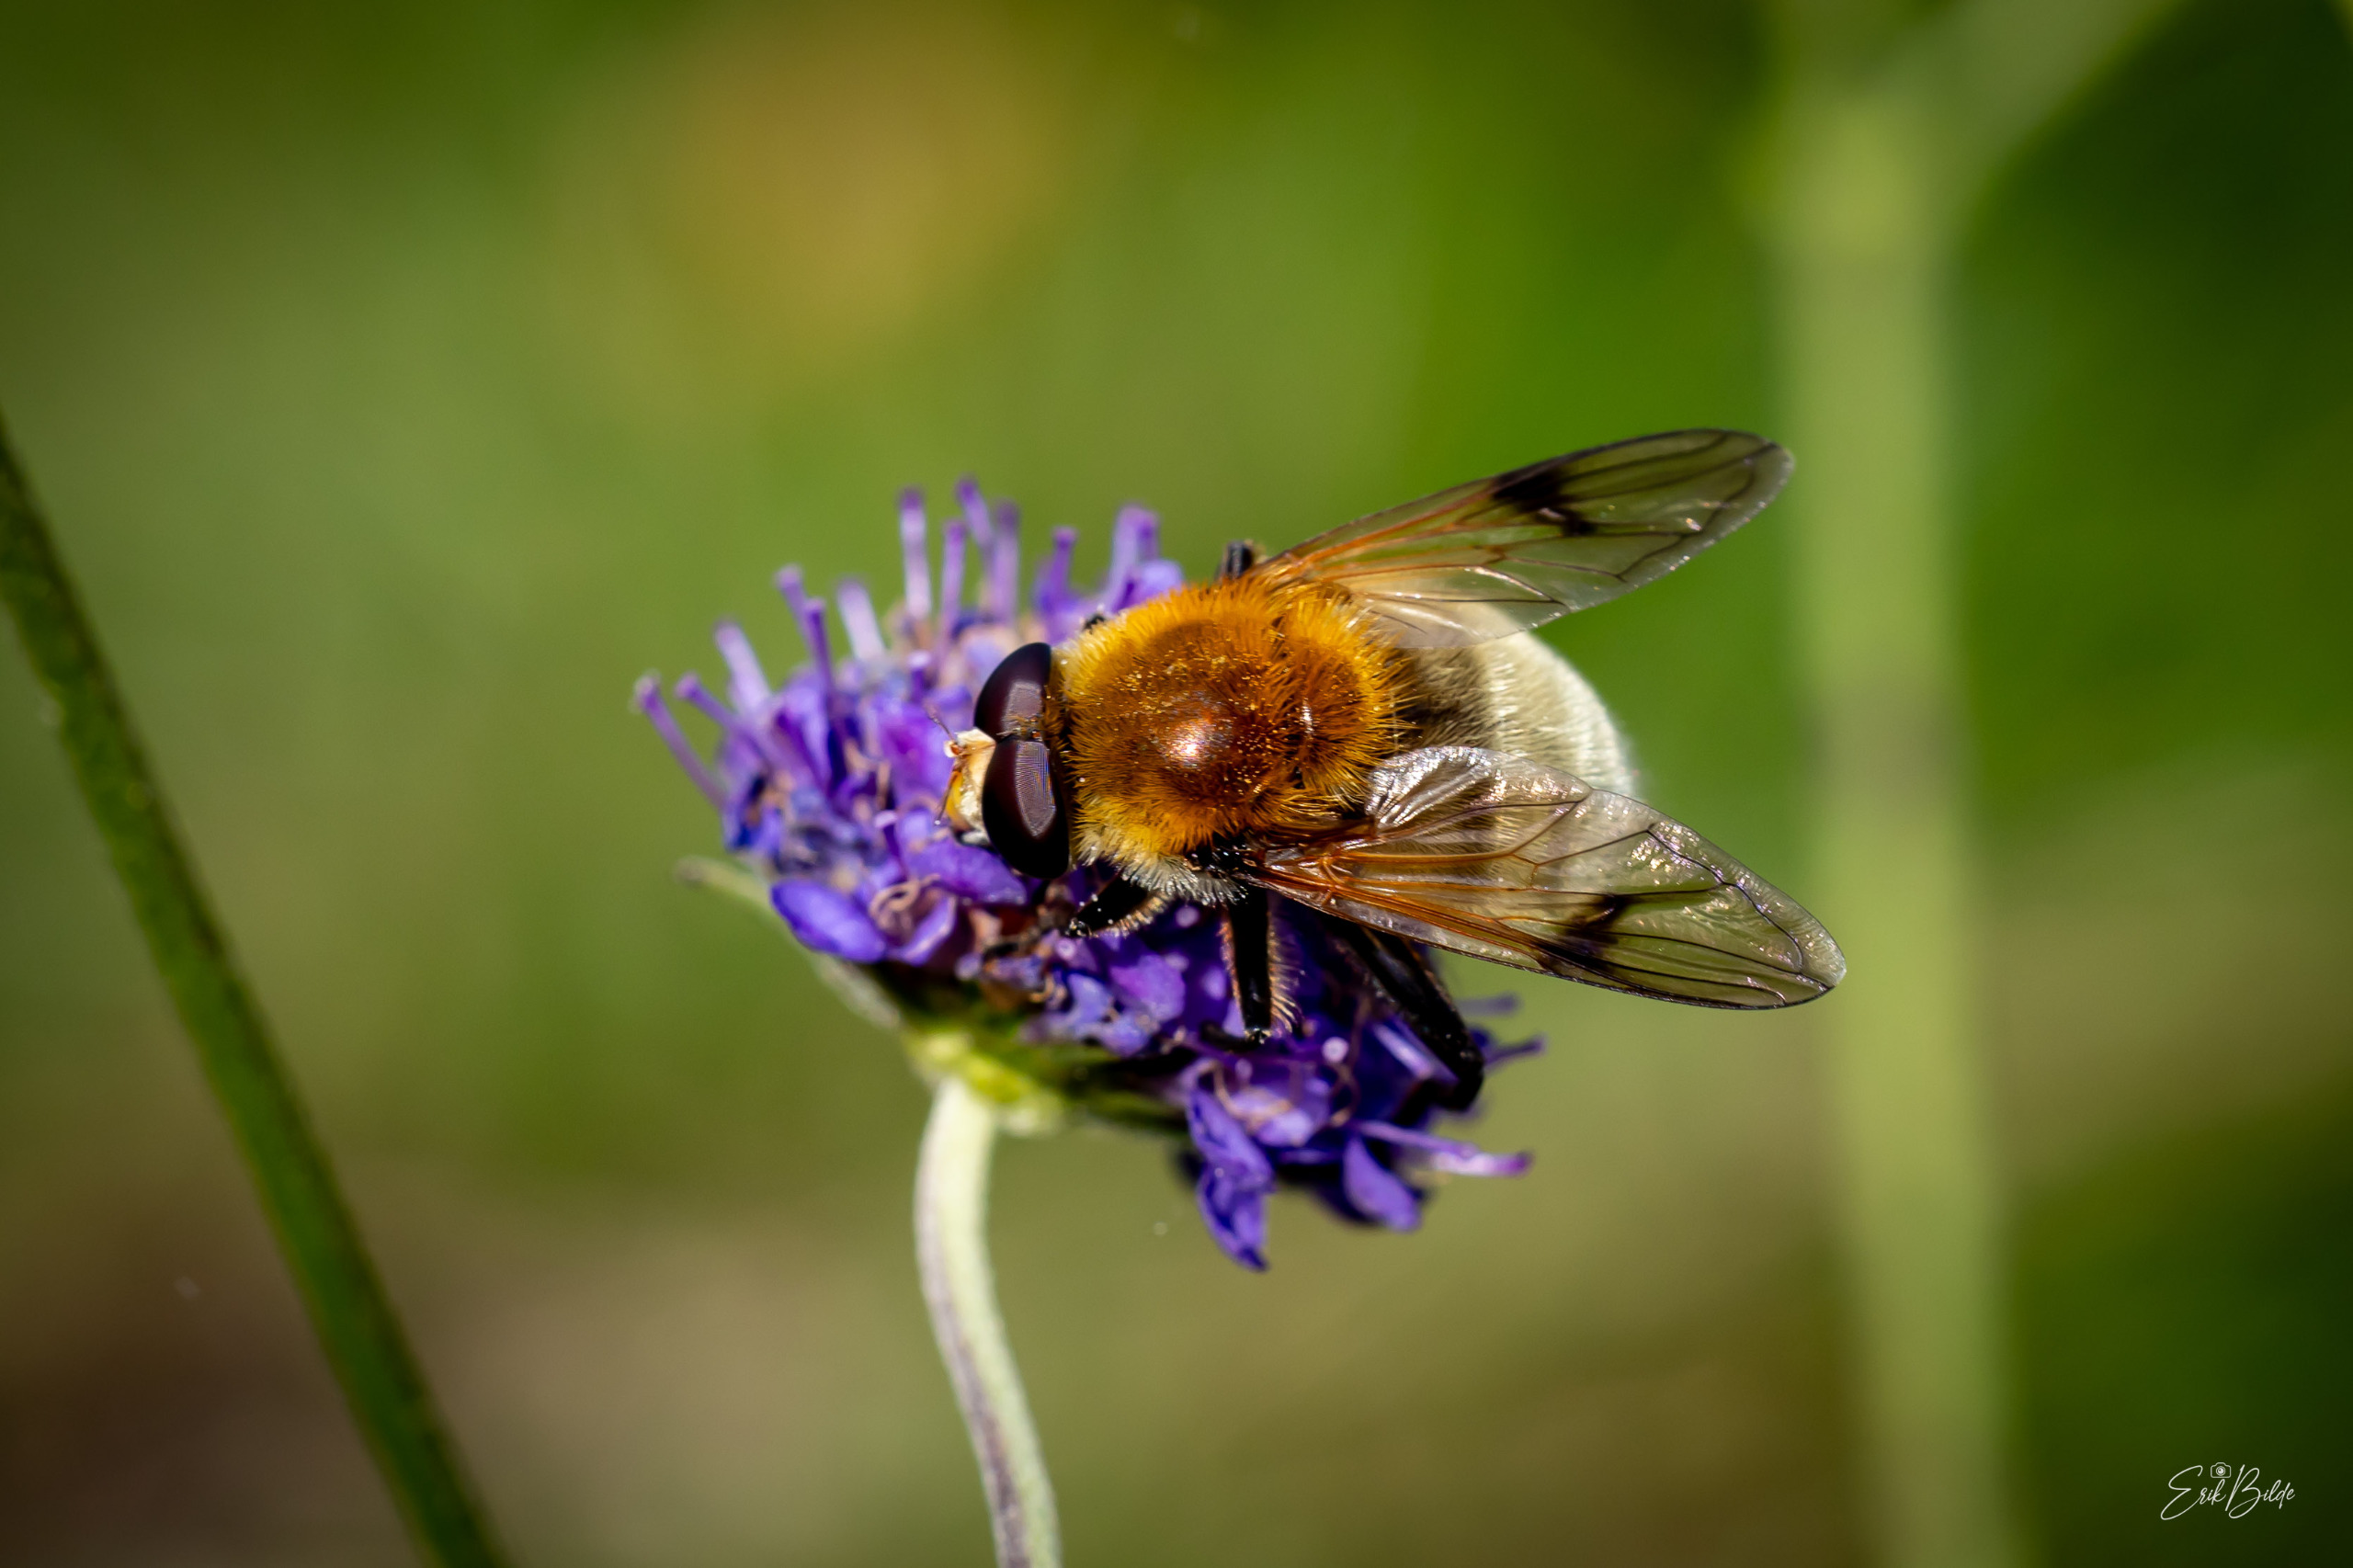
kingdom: Animalia
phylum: Arthropoda
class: Insecta
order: Diptera
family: Syrphidae
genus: Sericomyia
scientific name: Sericomyia superbiens
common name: Brun bjørnesvirreflue
